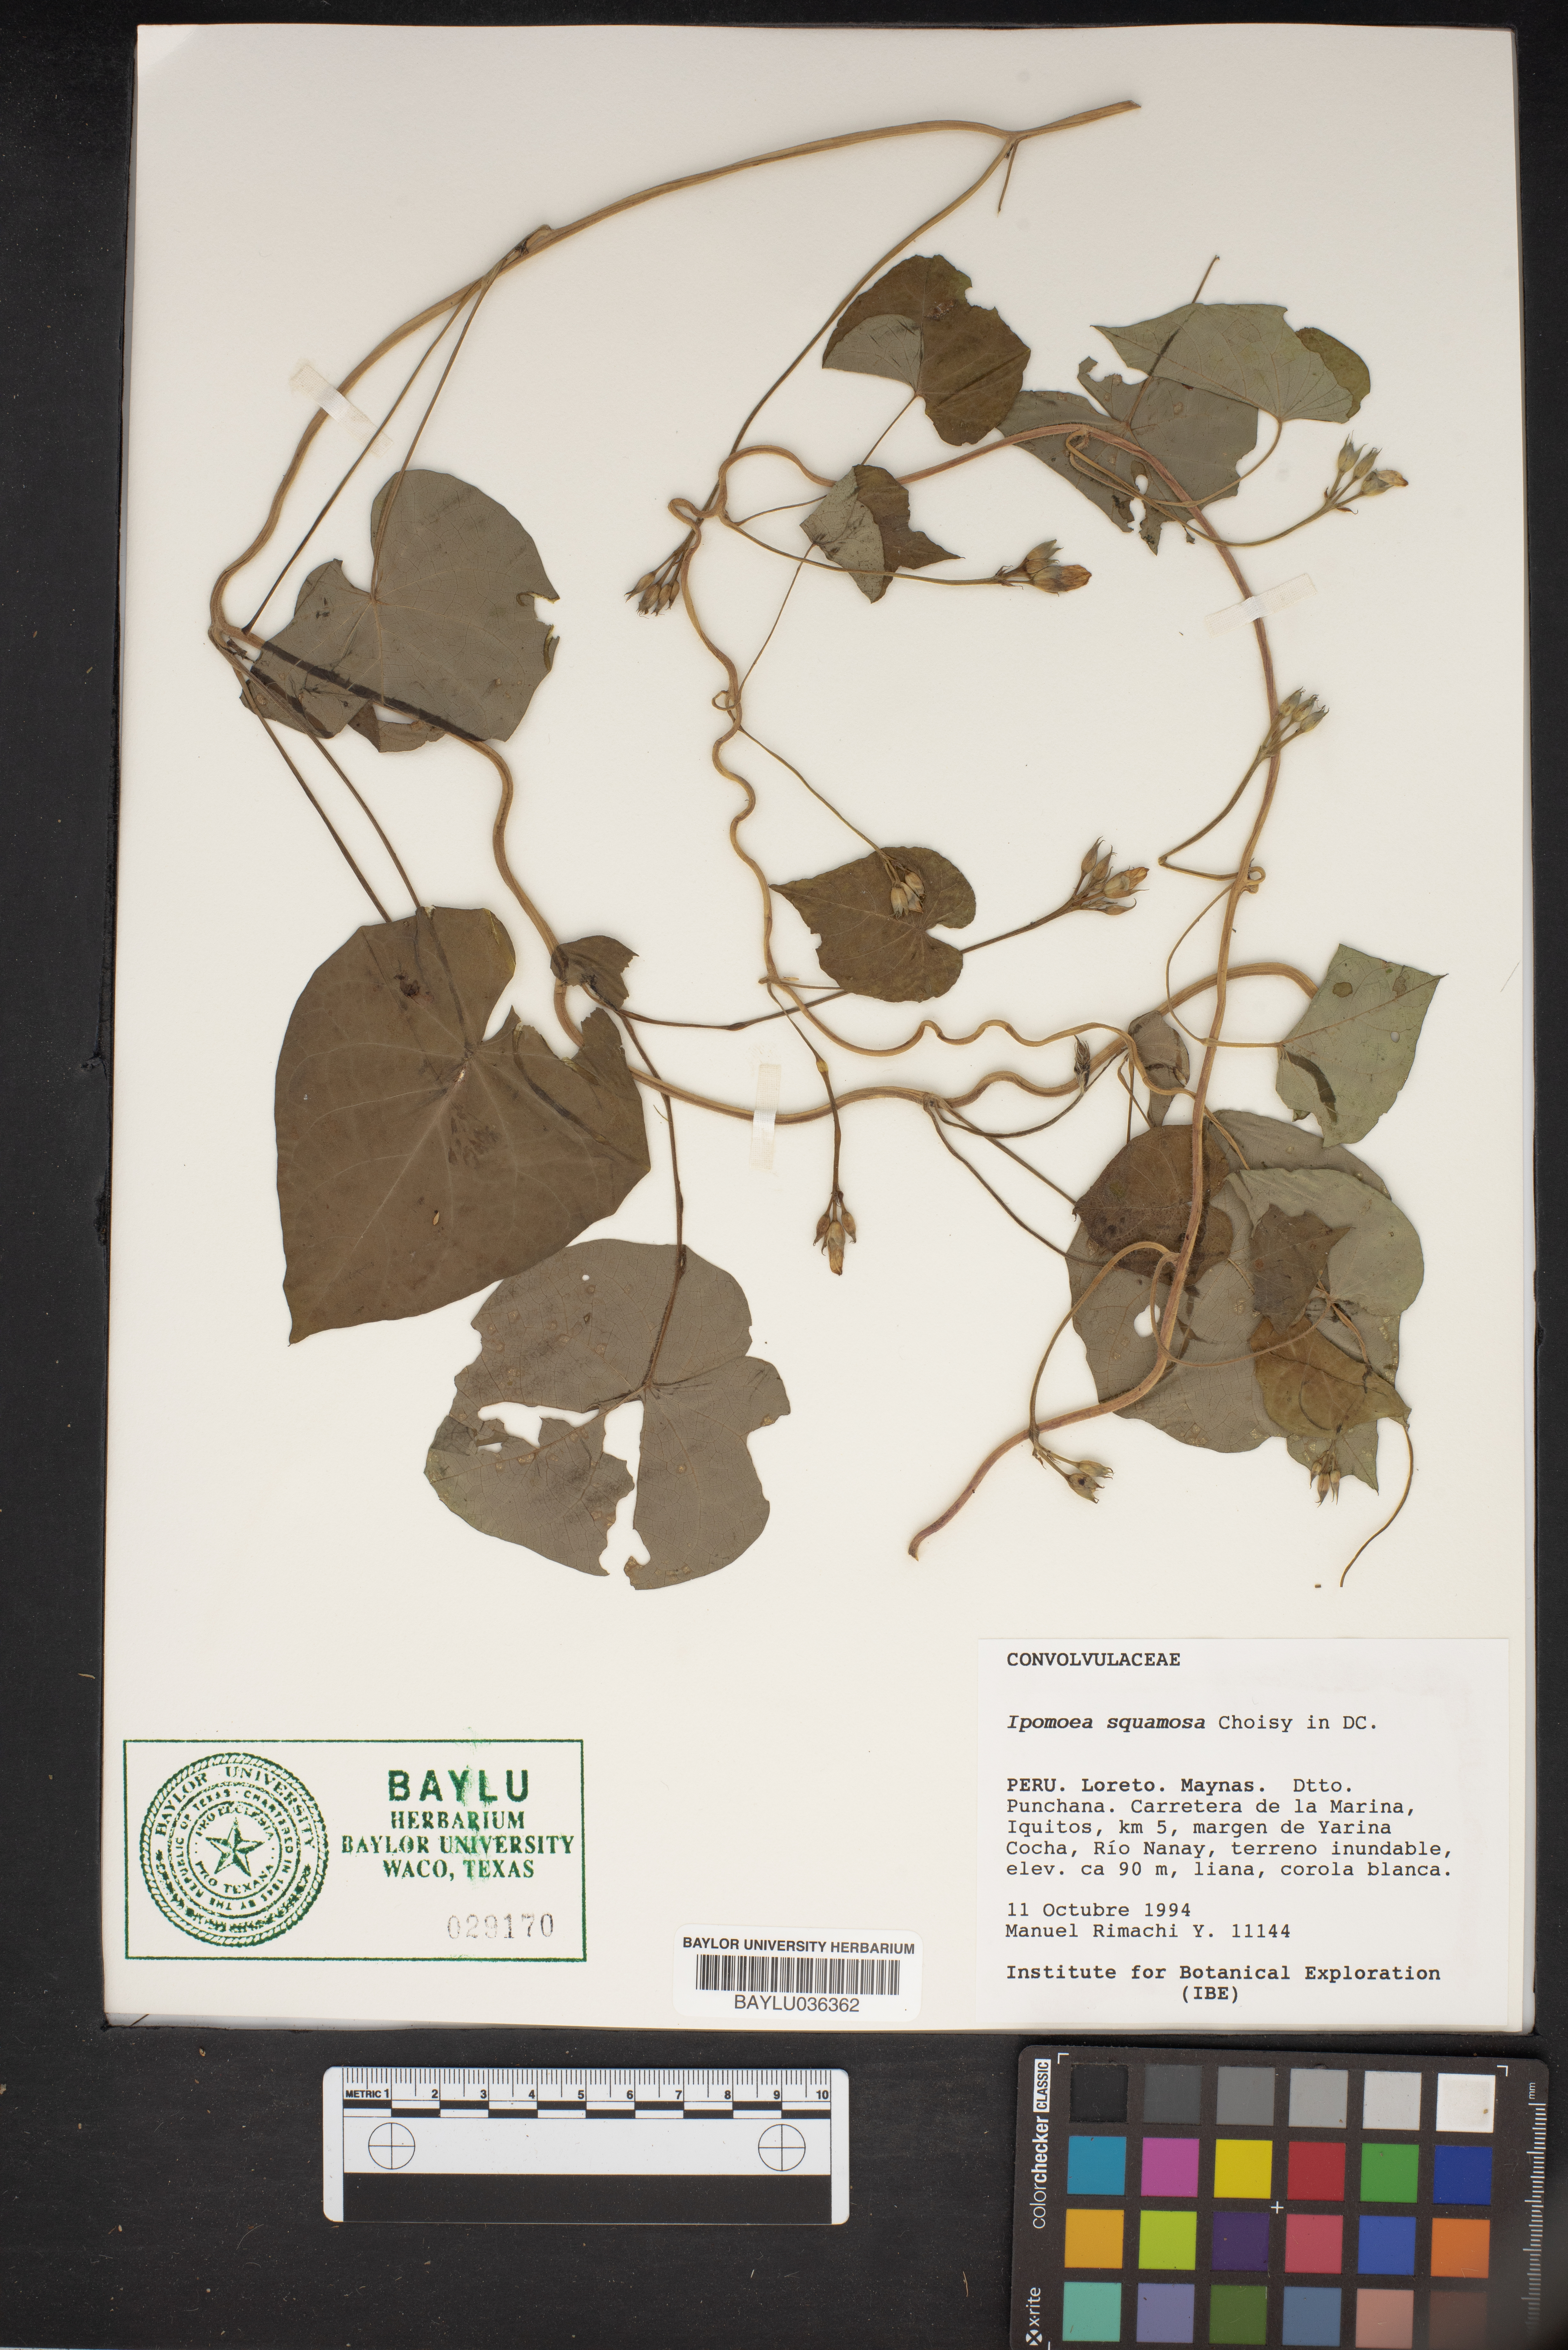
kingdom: Plantae
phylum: Tracheophyta
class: Magnoliopsida
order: Solanales
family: Convolvulaceae
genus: Ipomoea
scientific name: Ipomoea squamosa
